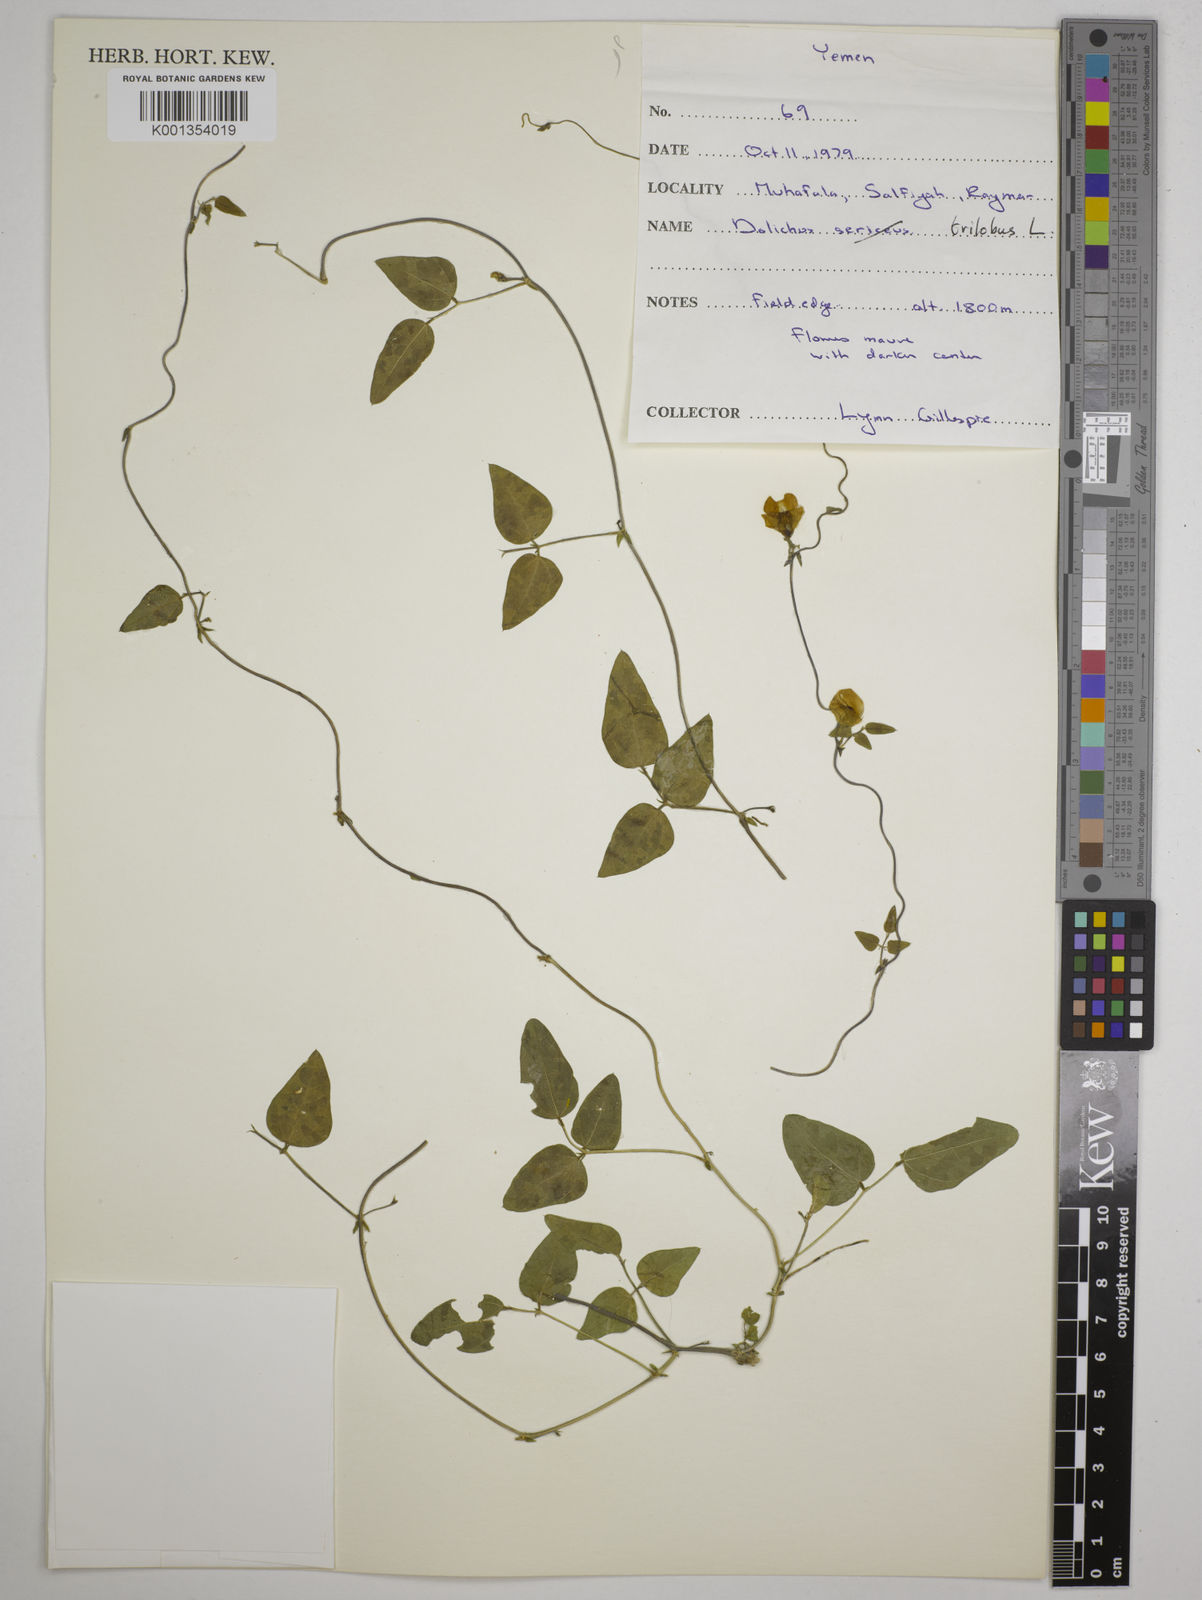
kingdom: Plantae
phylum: Tracheophyta
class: Magnoliopsida
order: Fabales
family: Fabaceae
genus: Dolichos
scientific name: Dolichos
